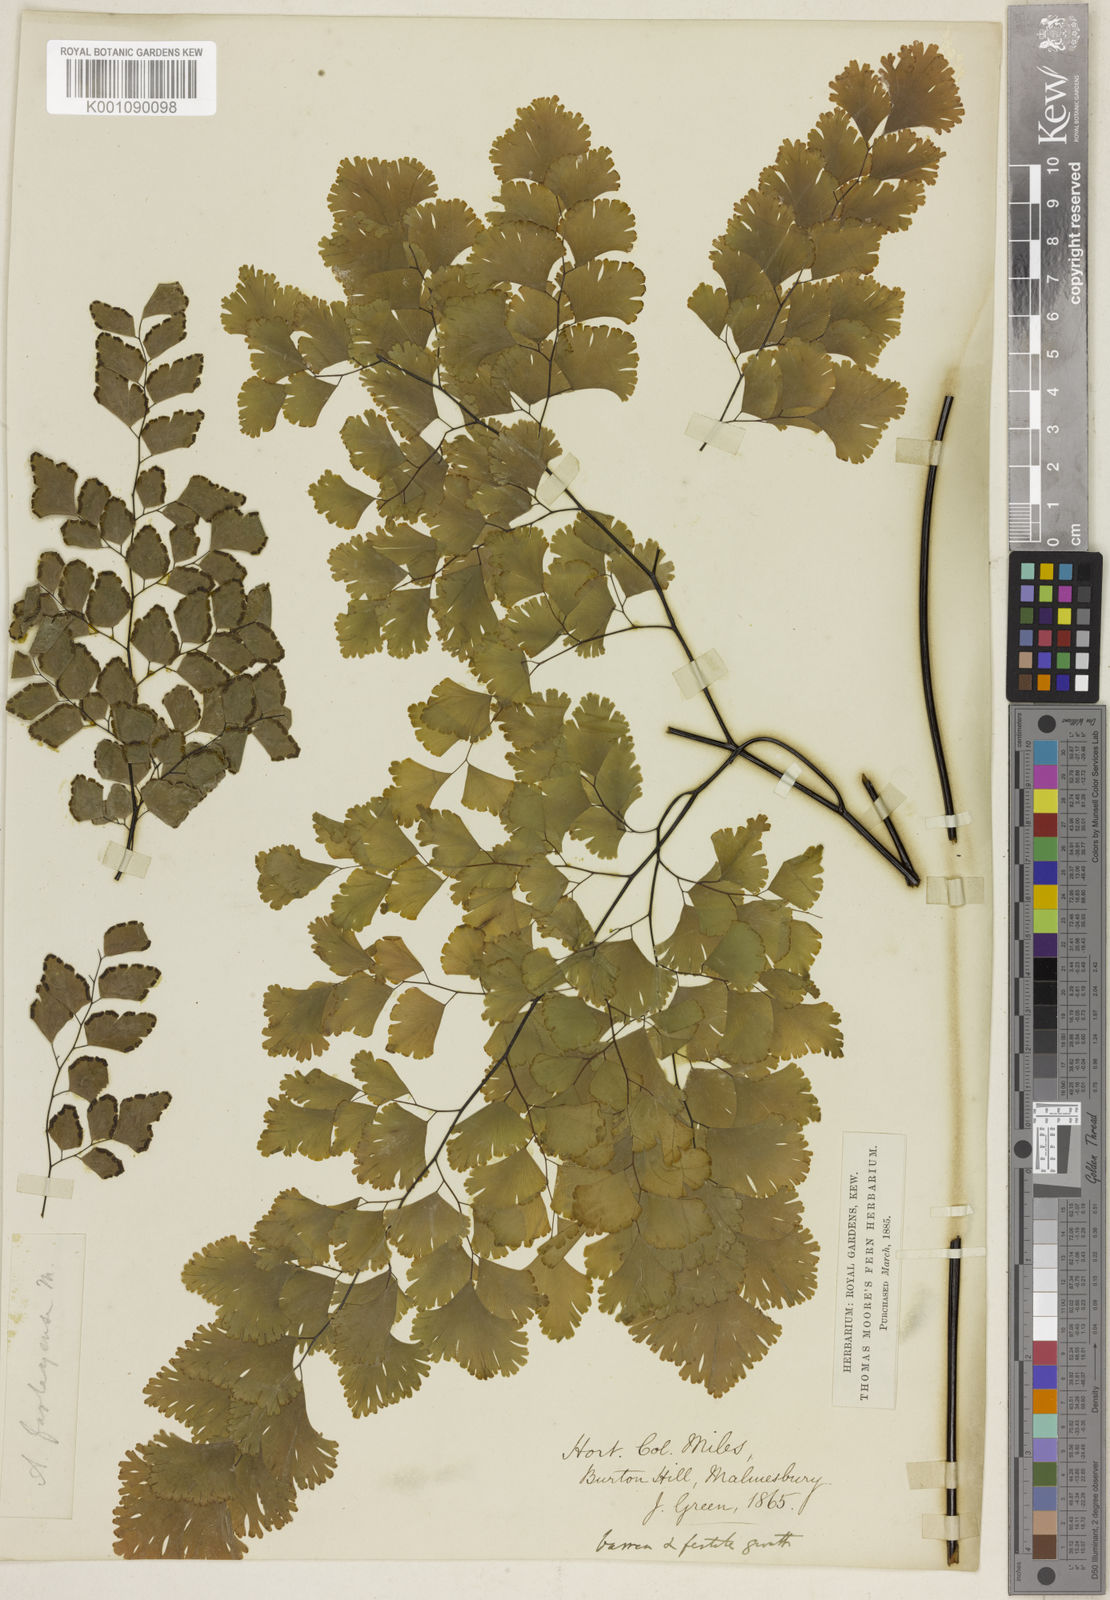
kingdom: Plantae
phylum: Tracheophyta
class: Polypodiopsida
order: Polypodiales
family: Pteridaceae
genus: Adiantum
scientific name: Adiantum tenerum
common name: Fan maidenhair
